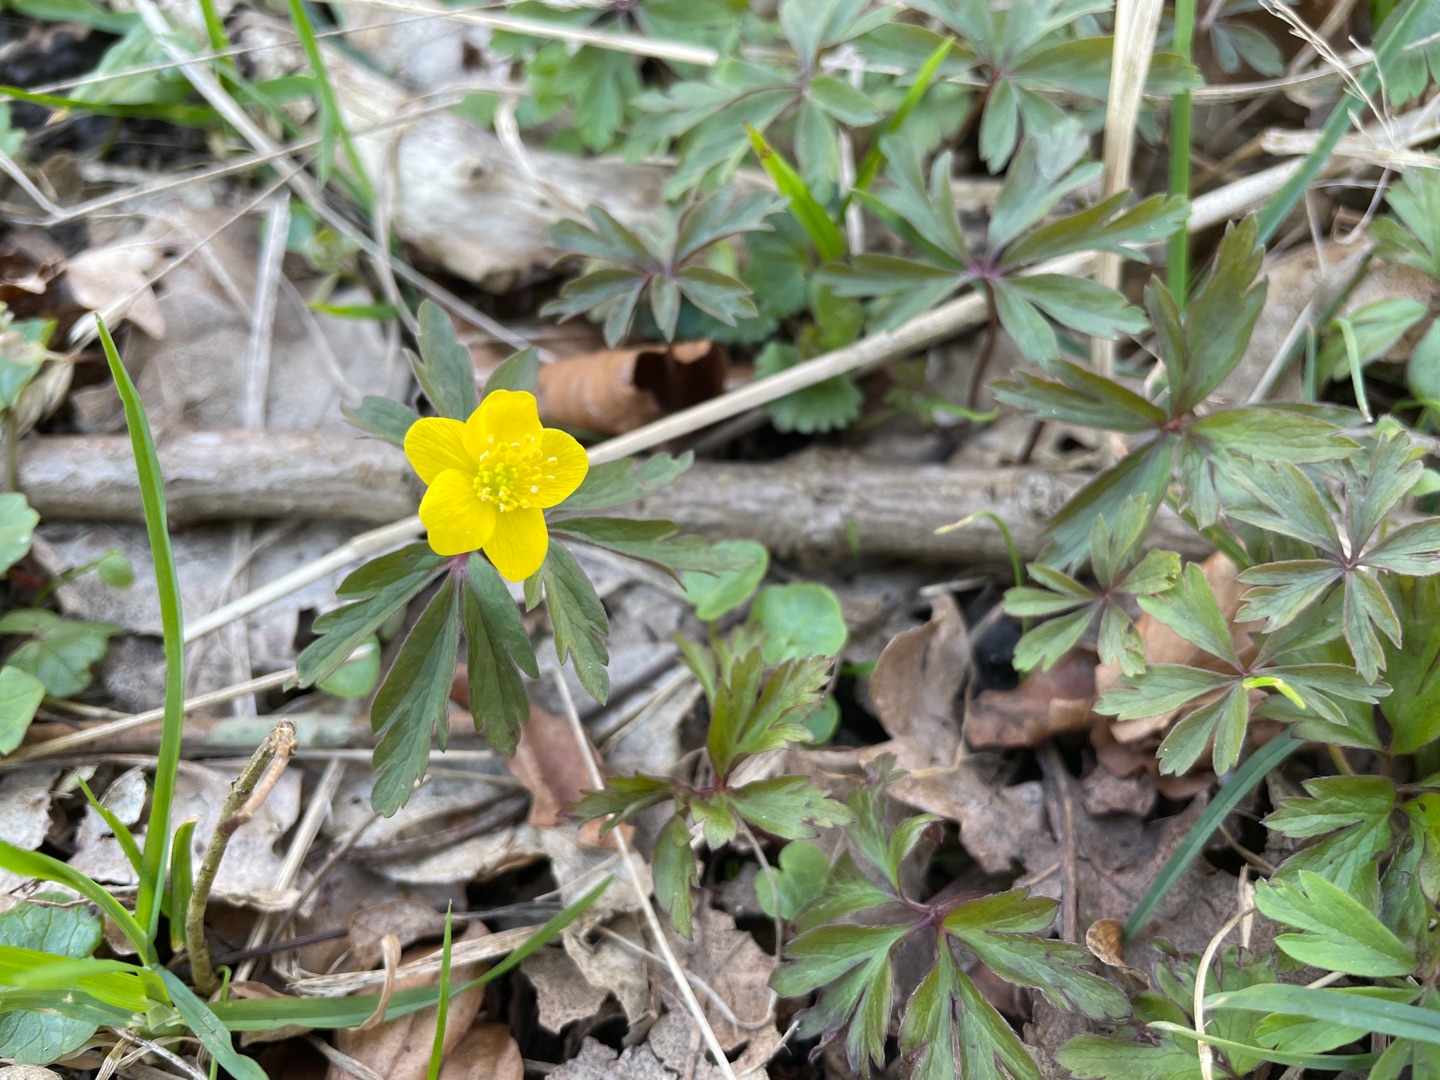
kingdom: Plantae
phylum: Tracheophyta
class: Magnoliopsida
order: Ranunculales
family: Ranunculaceae
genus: Anemone
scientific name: Anemone ranunculoides
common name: Gul anemone
